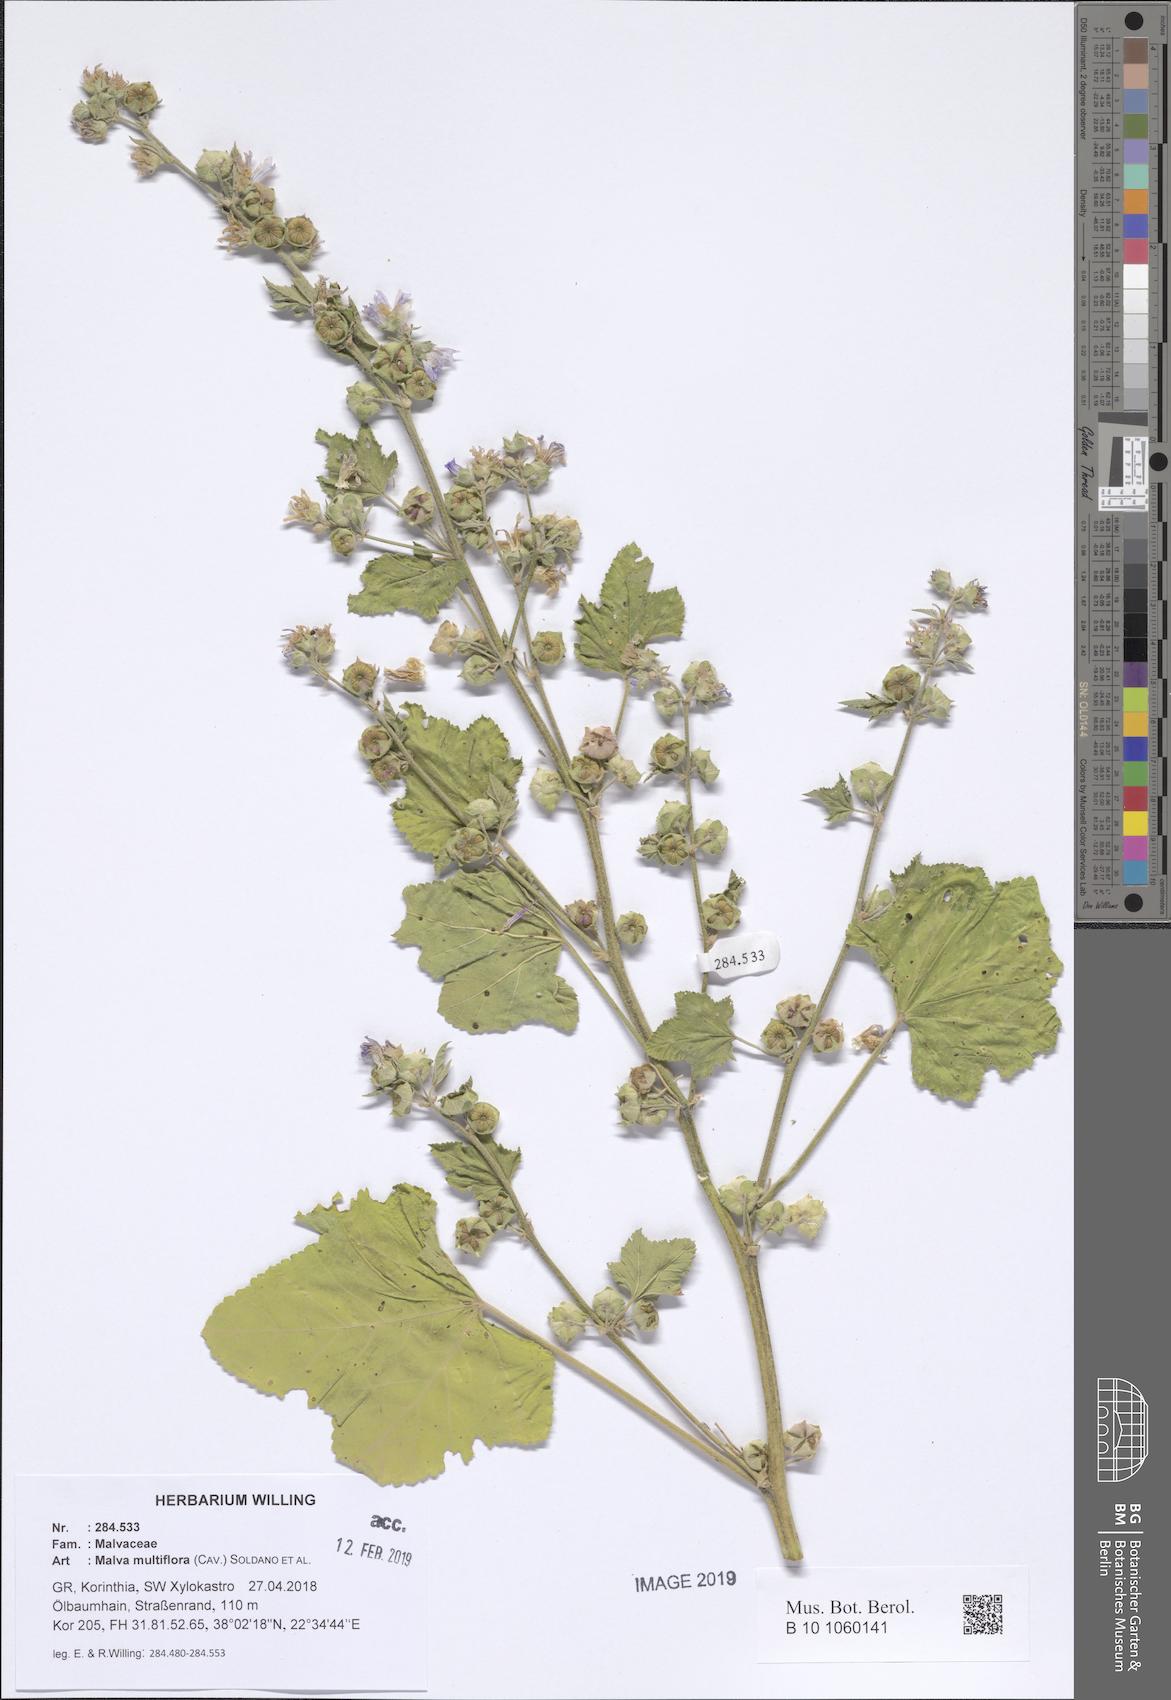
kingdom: Plantae
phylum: Tracheophyta
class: Magnoliopsida
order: Malvales
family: Malvaceae
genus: Malva
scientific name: Malva multiflora
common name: Cheeseweed
